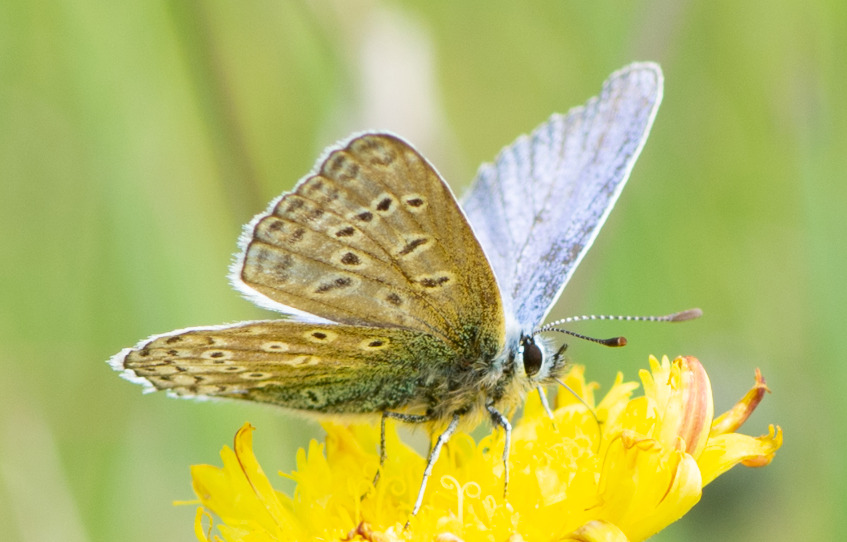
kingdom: Animalia
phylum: Arthropoda
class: Insecta
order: Lepidoptera
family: Lycaenidae
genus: Polyommatus
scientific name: Polyommatus icarus
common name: Almindelig blåfugl
